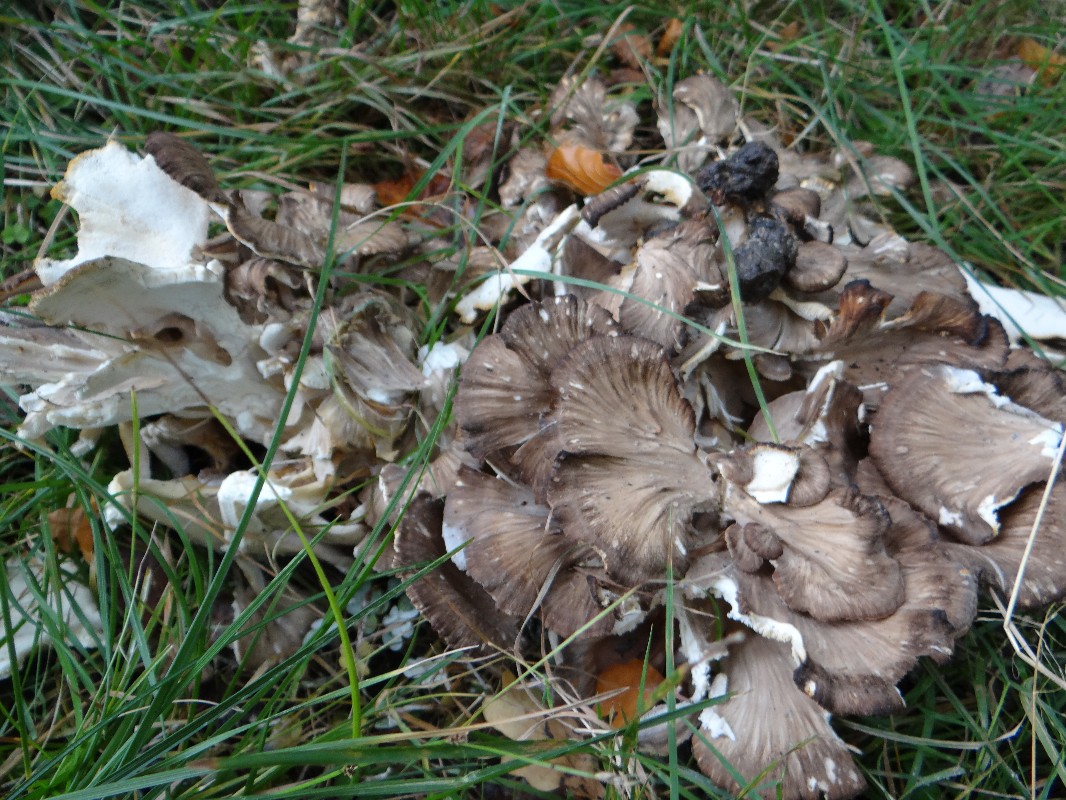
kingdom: Fungi
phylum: Basidiomycota
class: Agaricomycetes
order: Polyporales
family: Grifolaceae
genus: Grifola
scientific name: Grifola frondosa
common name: tueporesvamp
